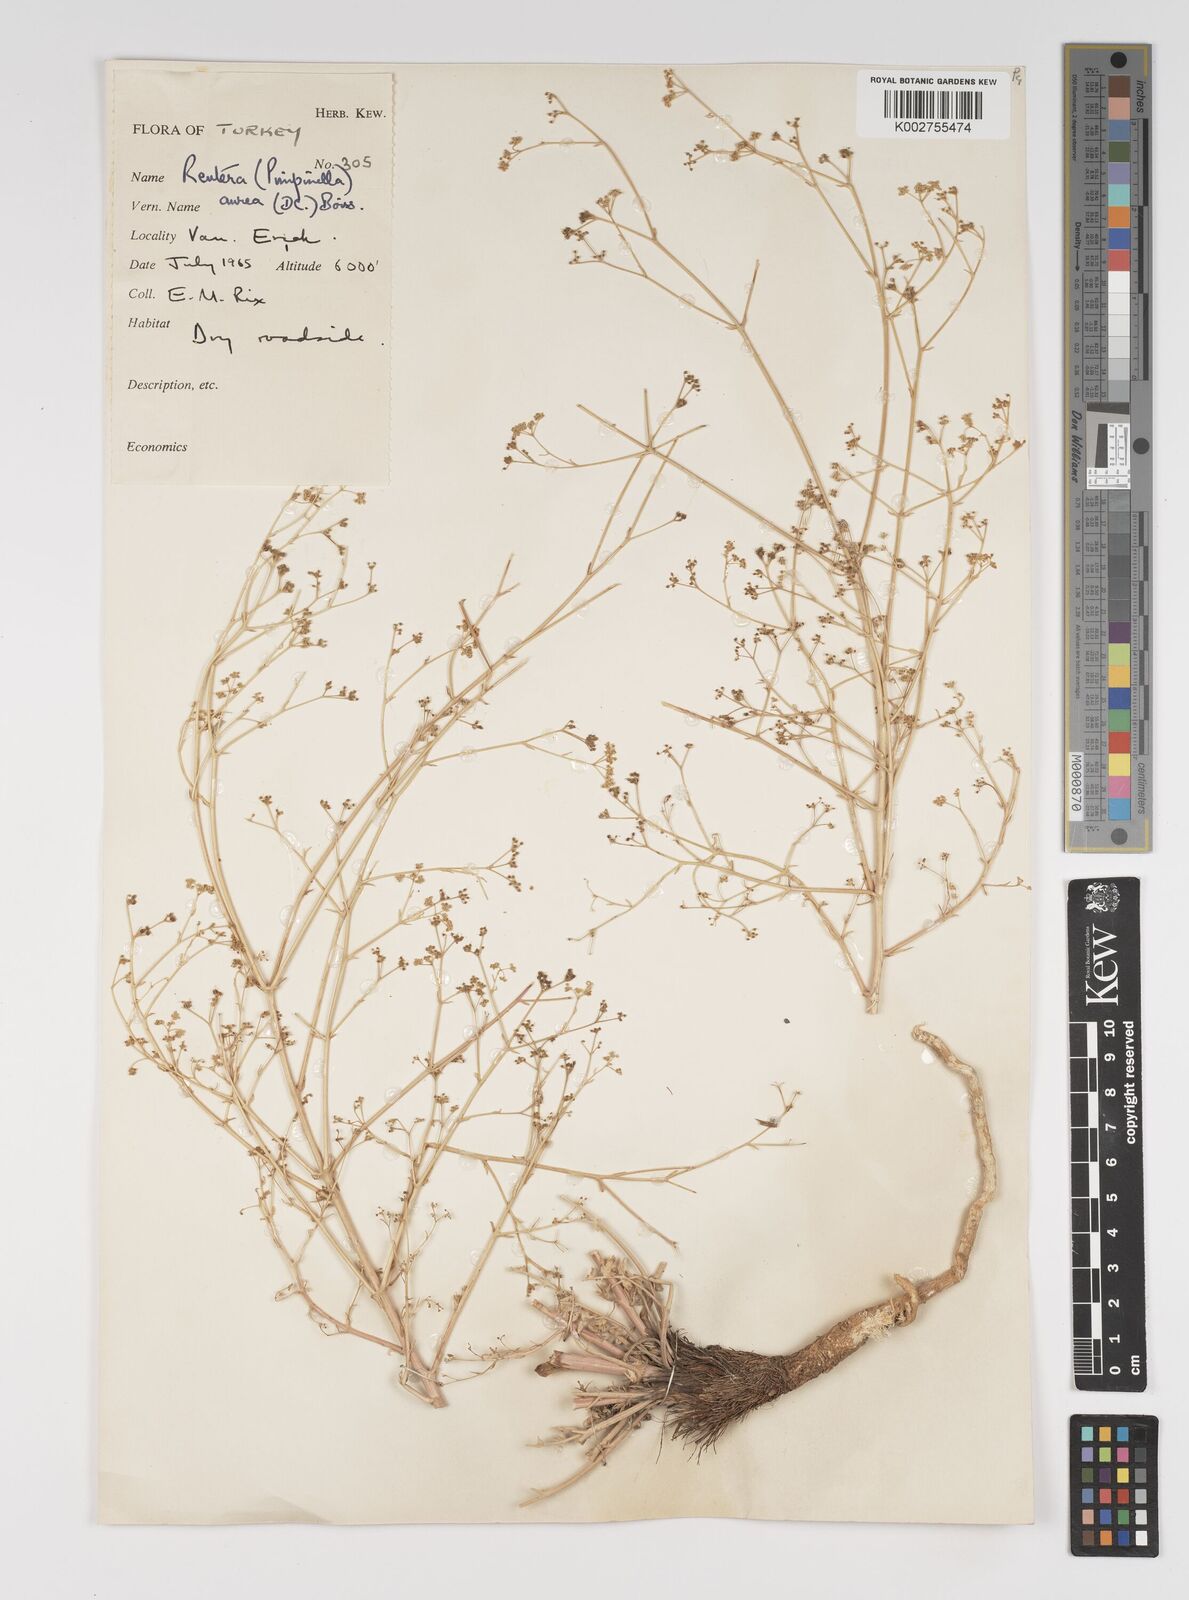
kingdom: Plantae
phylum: Tracheophyta
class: Magnoliopsida
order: Apiales
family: Apiaceae
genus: Pimpinella
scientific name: Pimpinella aurea
